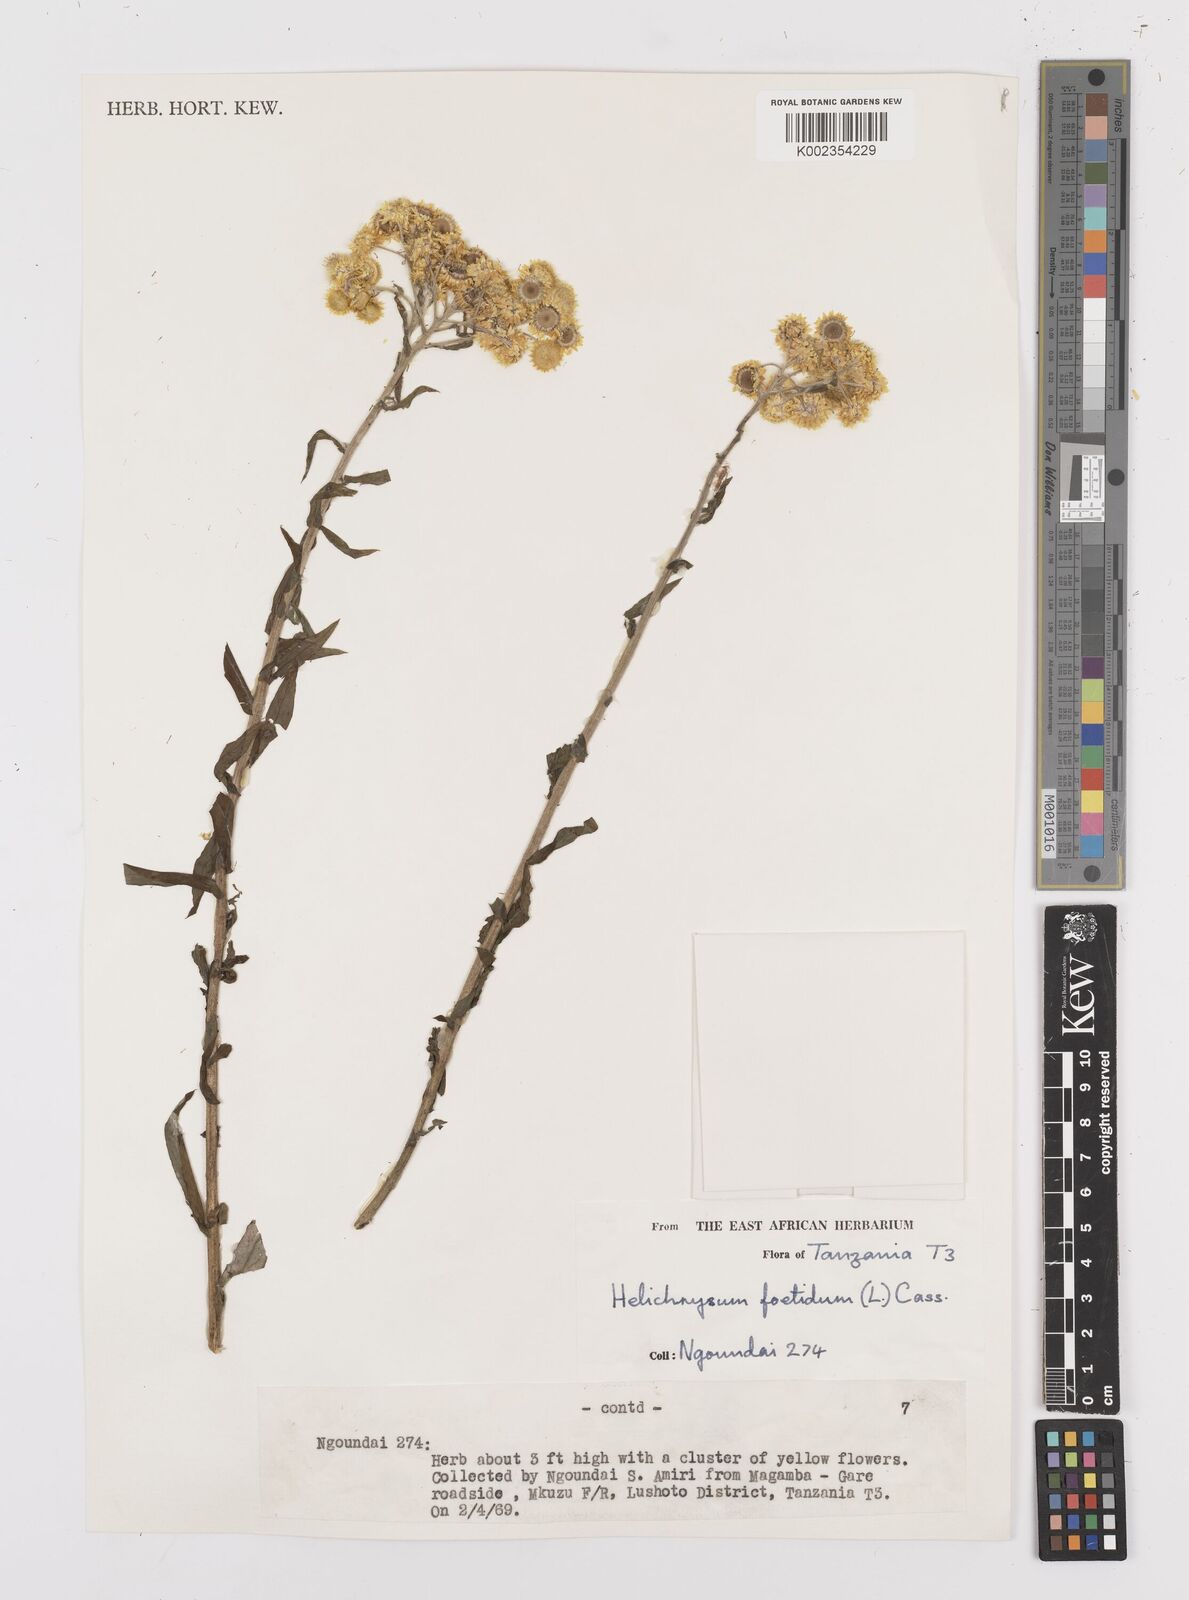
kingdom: Plantae
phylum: Tracheophyta
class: Magnoliopsida
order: Asterales
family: Asteraceae
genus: Helichrysum
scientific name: Helichrysum
